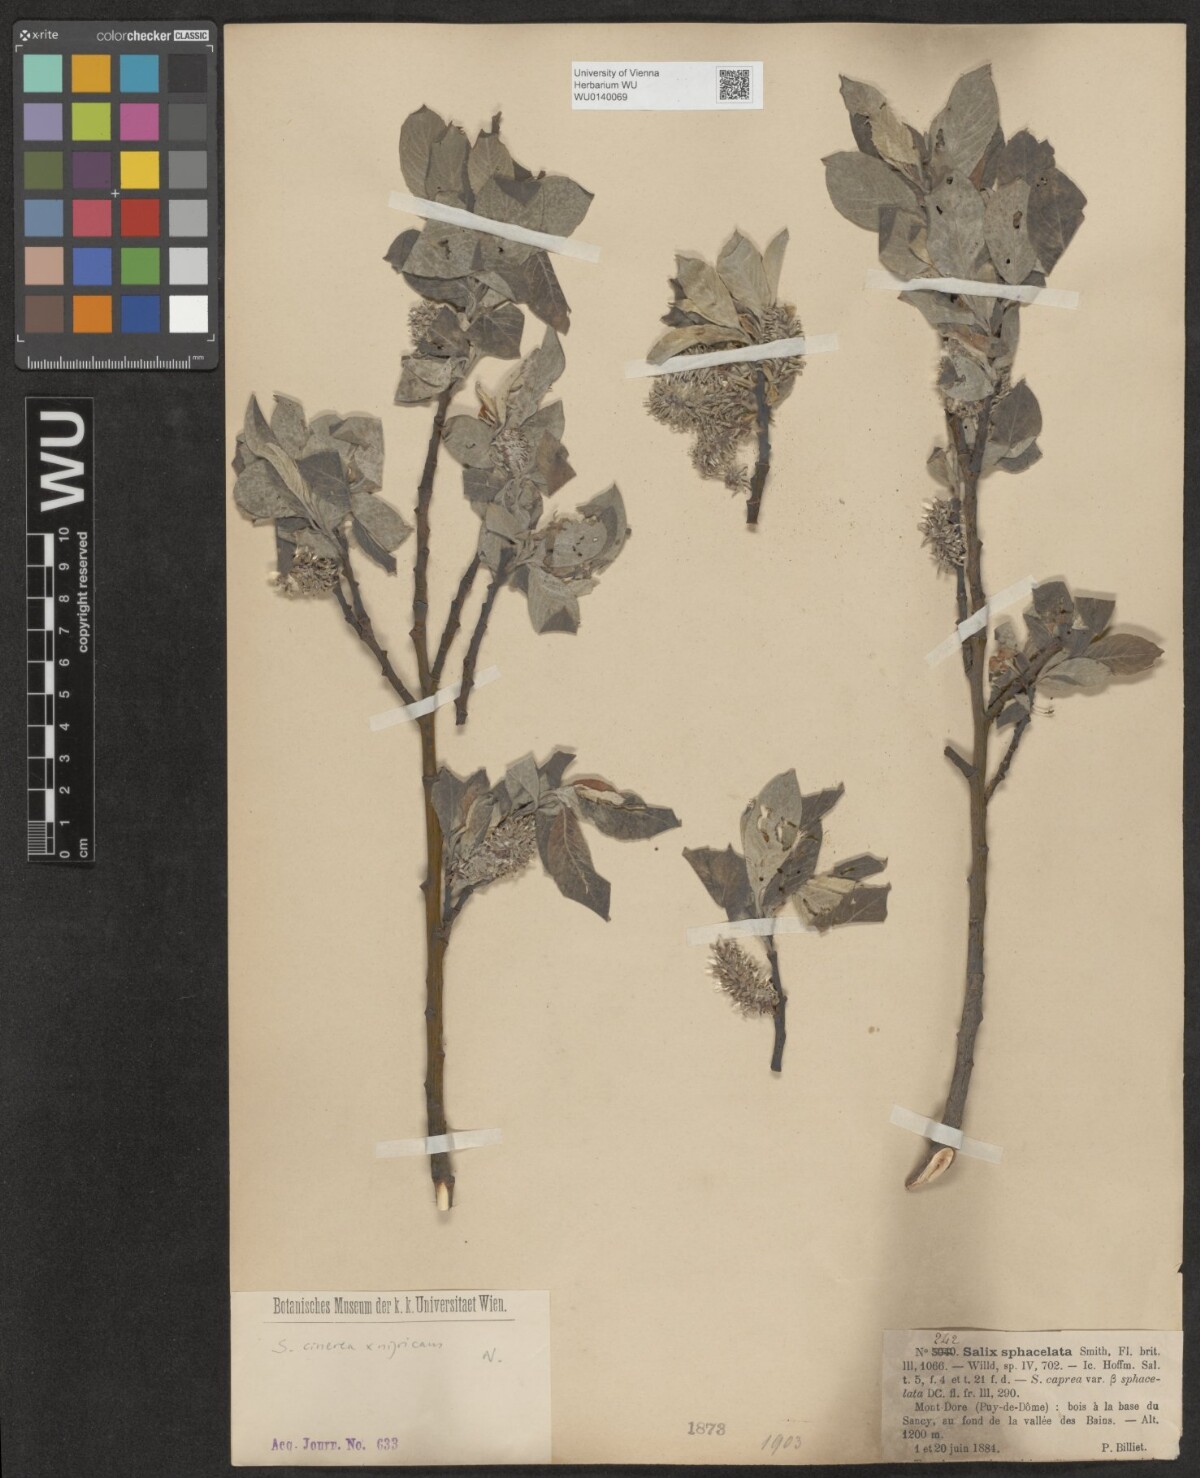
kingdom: Plantae
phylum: Tracheophyta
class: Magnoliopsida
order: Malpighiales
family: Salicaceae
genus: Salix
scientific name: Salix caprea
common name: Goat willow
